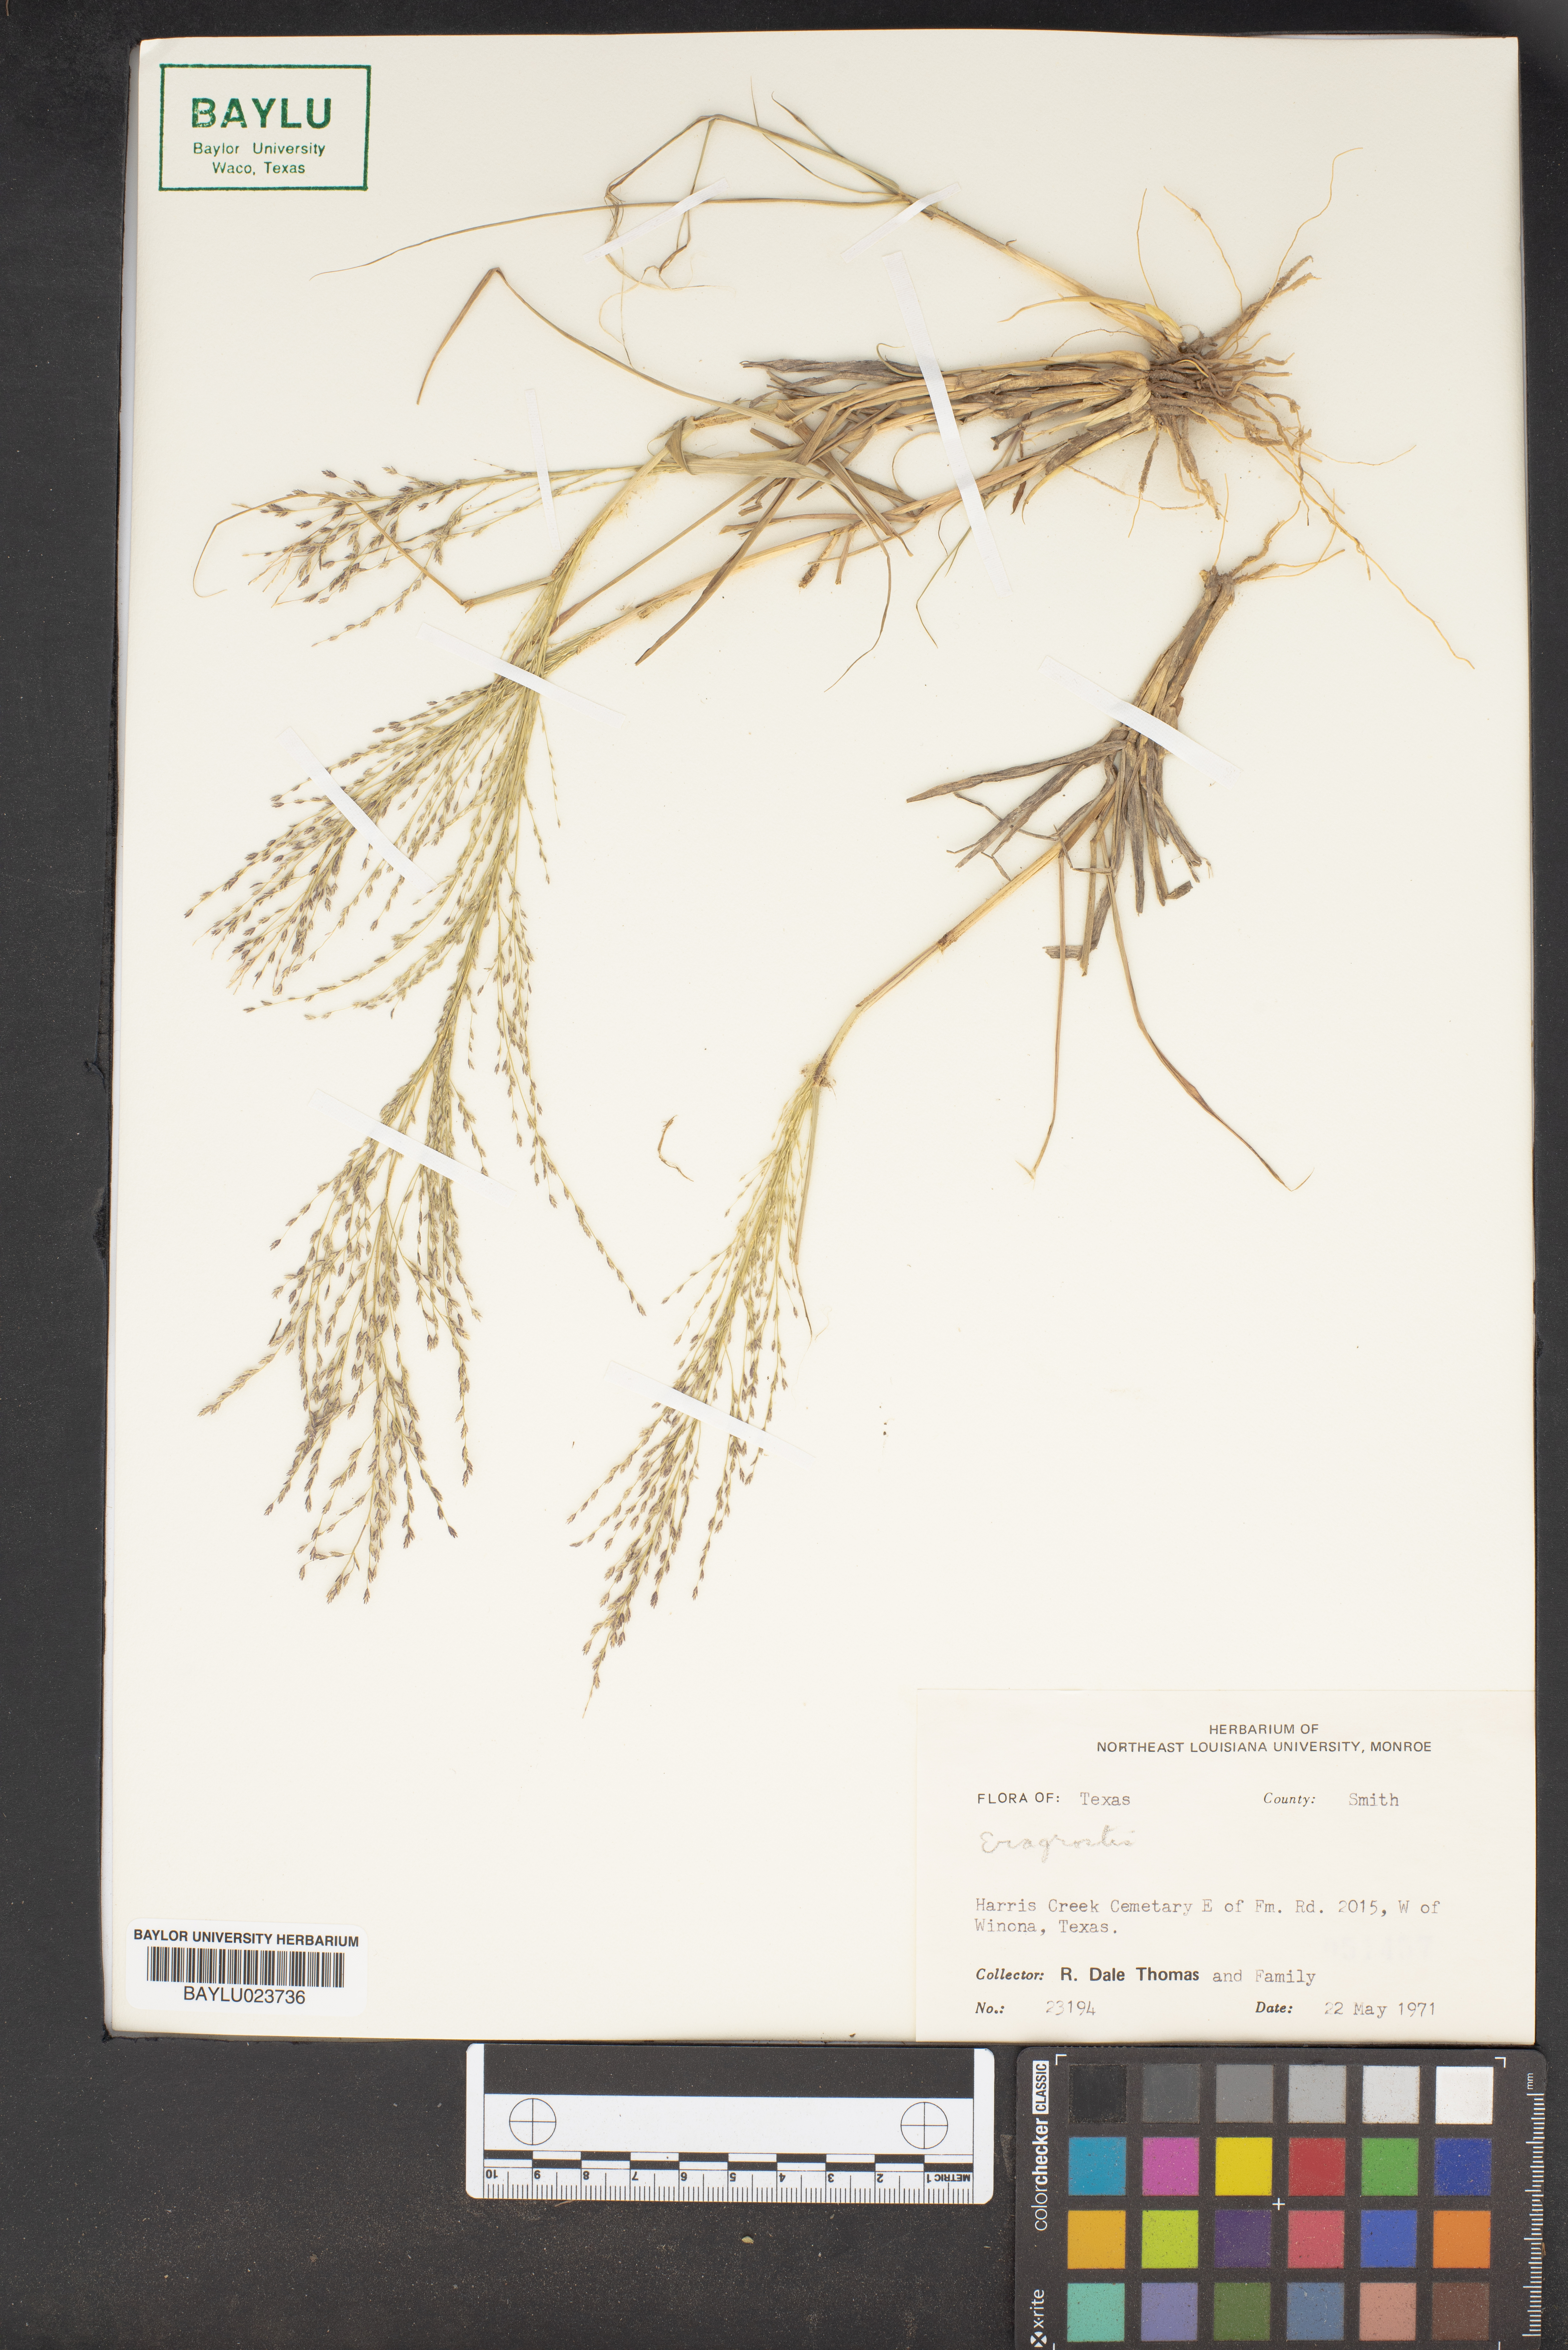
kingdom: Plantae
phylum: Tracheophyta
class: Liliopsida
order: Poales
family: Poaceae
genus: Eragrostis
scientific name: Eragrostis
